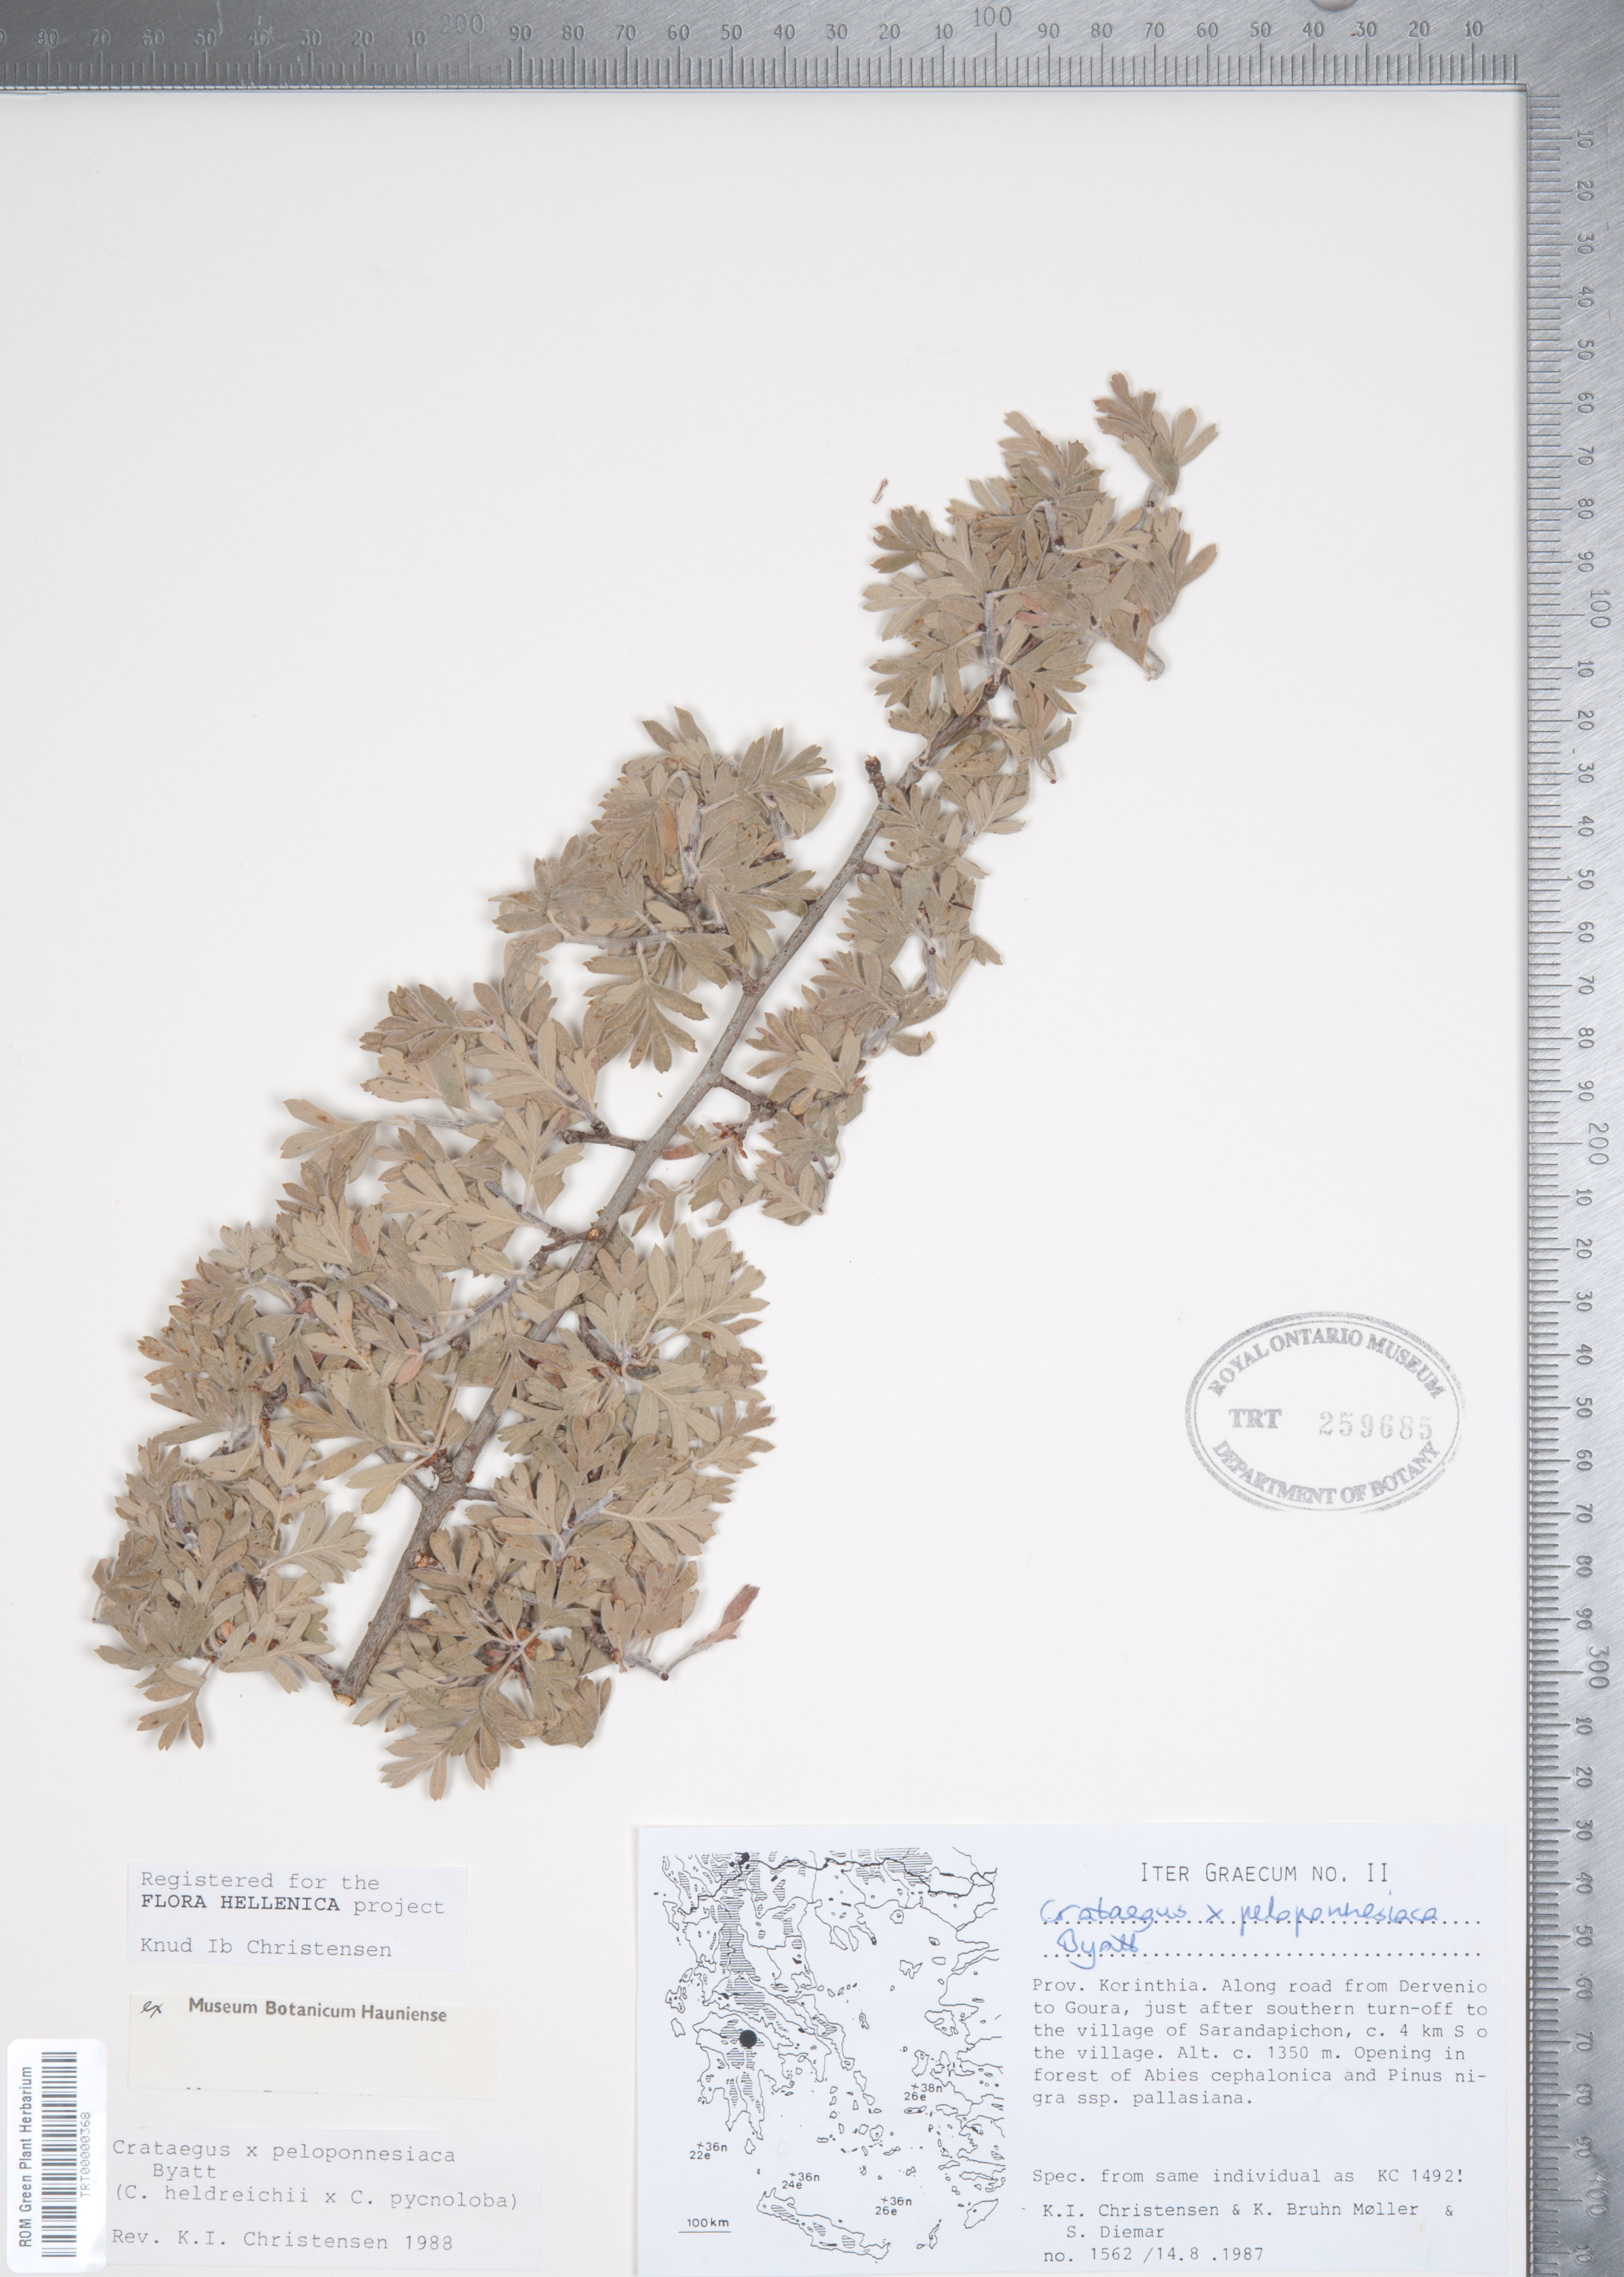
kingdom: Plantae
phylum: Tracheophyta
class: Magnoliopsida
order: Rosales
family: Rosaceae
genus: Crataegus
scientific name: Crataegus peloponnesiaca
